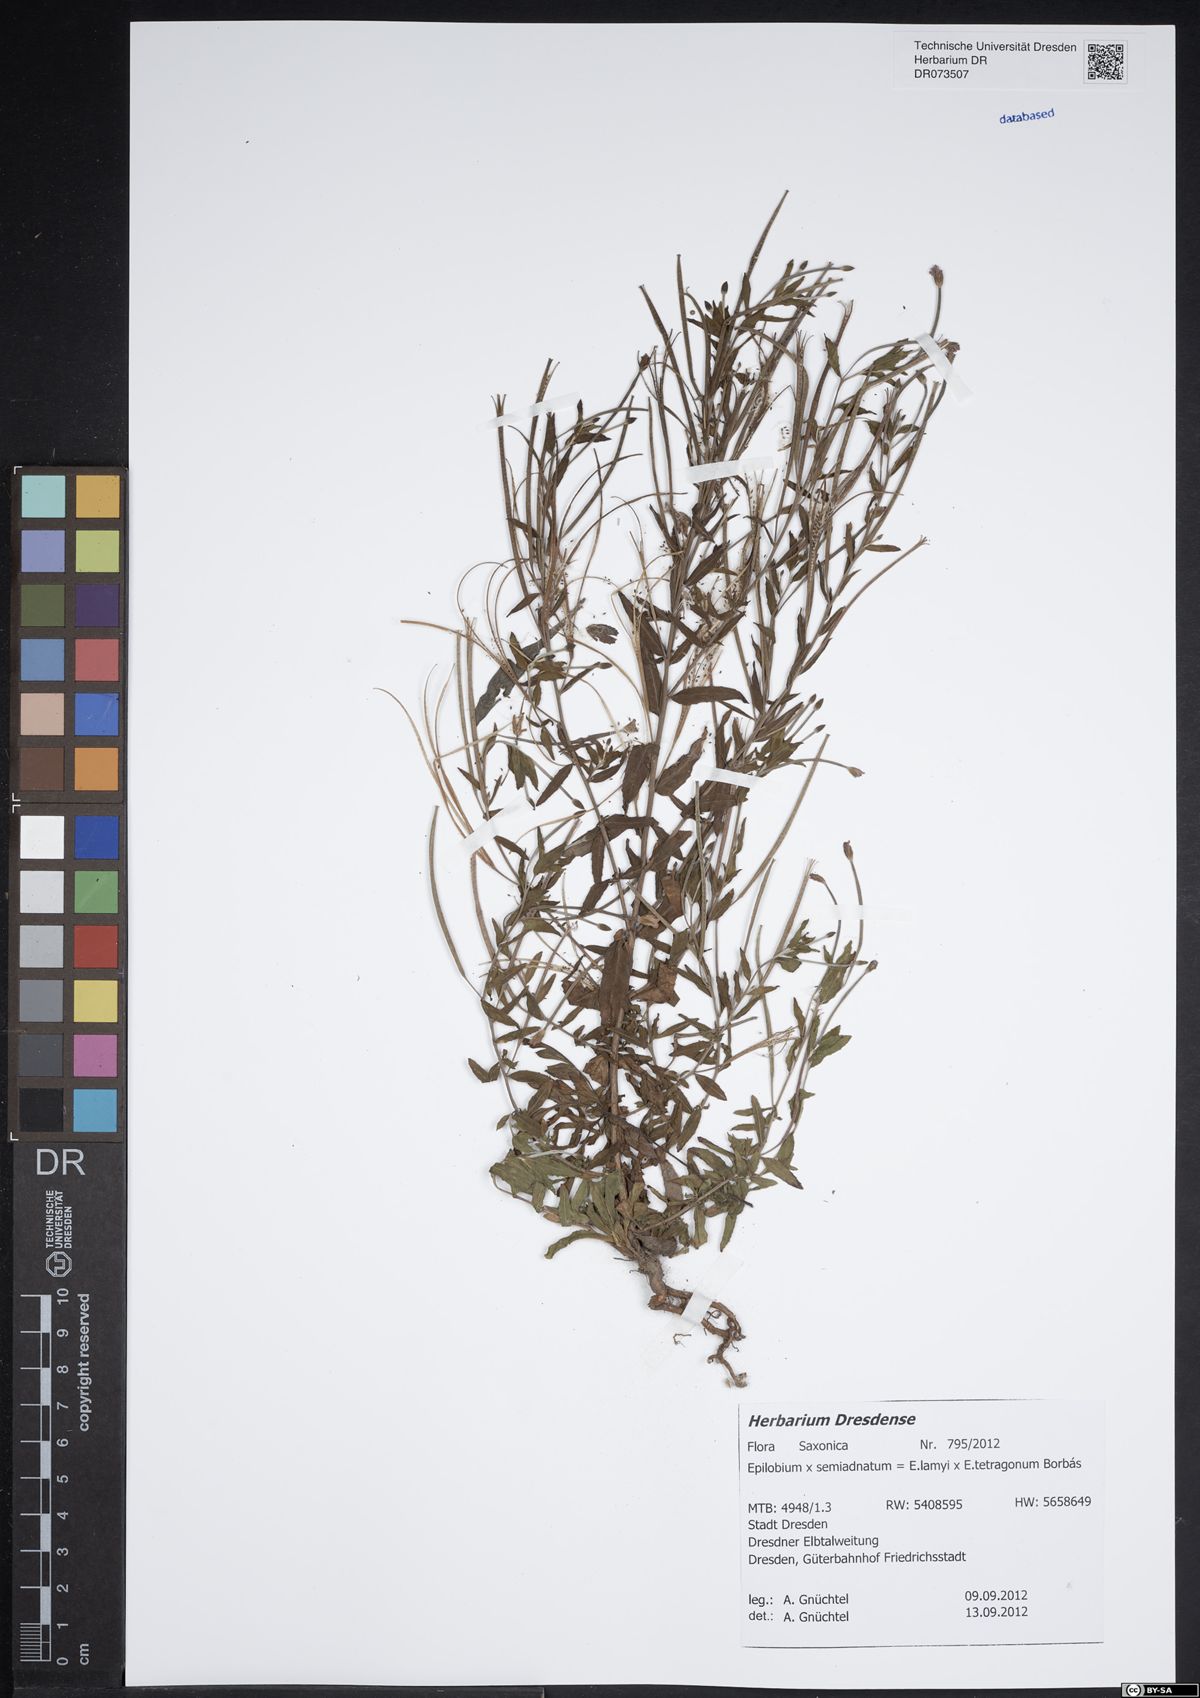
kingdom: Plantae
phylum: Tracheophyta
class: Magnoliopsida
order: Myrtales
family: Onagraceae
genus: Epilobium
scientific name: Epilobium semiadnatum
